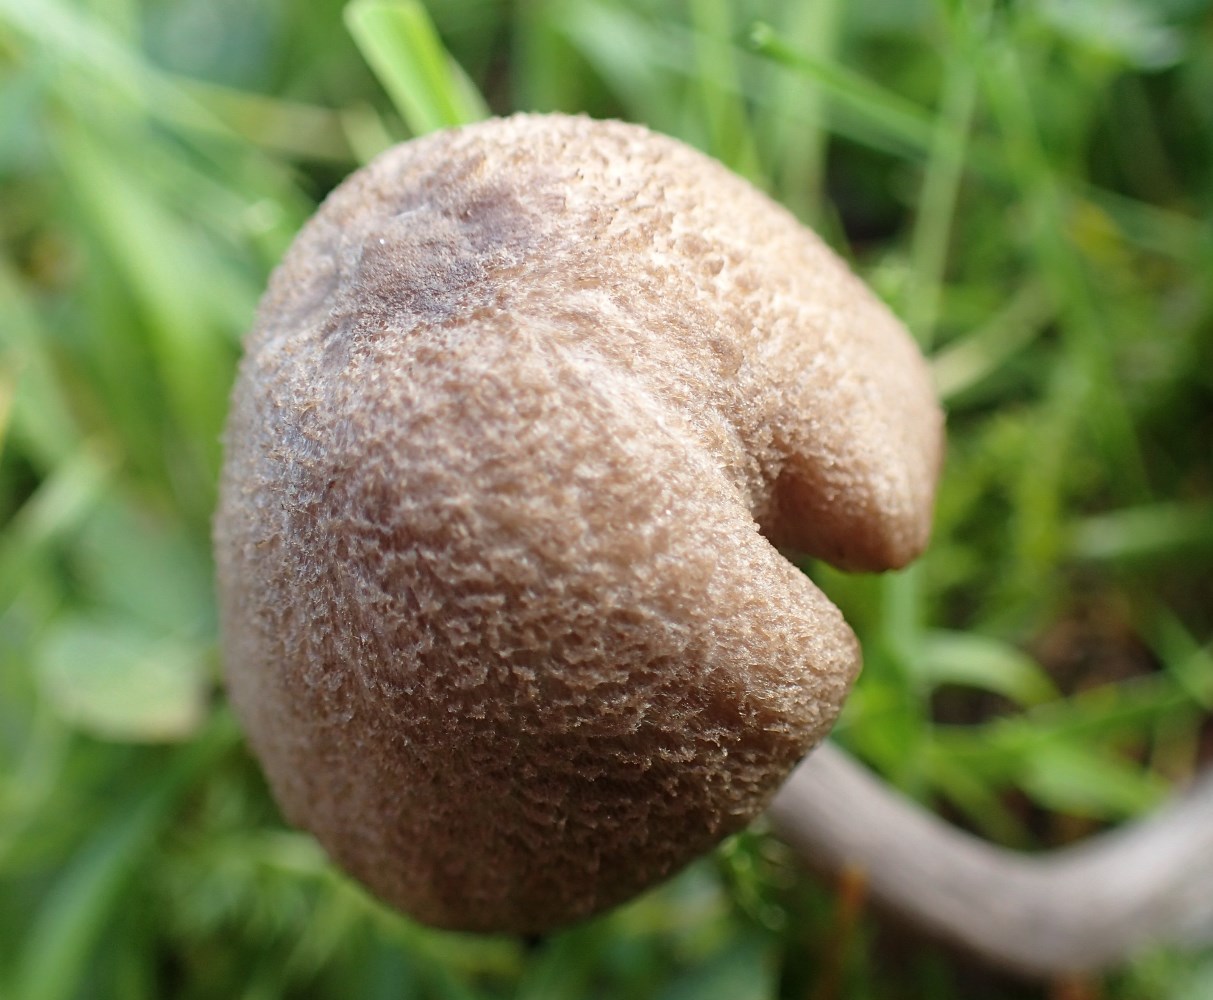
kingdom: Fungi
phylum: Basidiomycota
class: Agaricomycetes
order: Agaricales
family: Entolomataceae
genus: Entoloma
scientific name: Entoloma griseocyaneum
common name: gråblå rødblad
